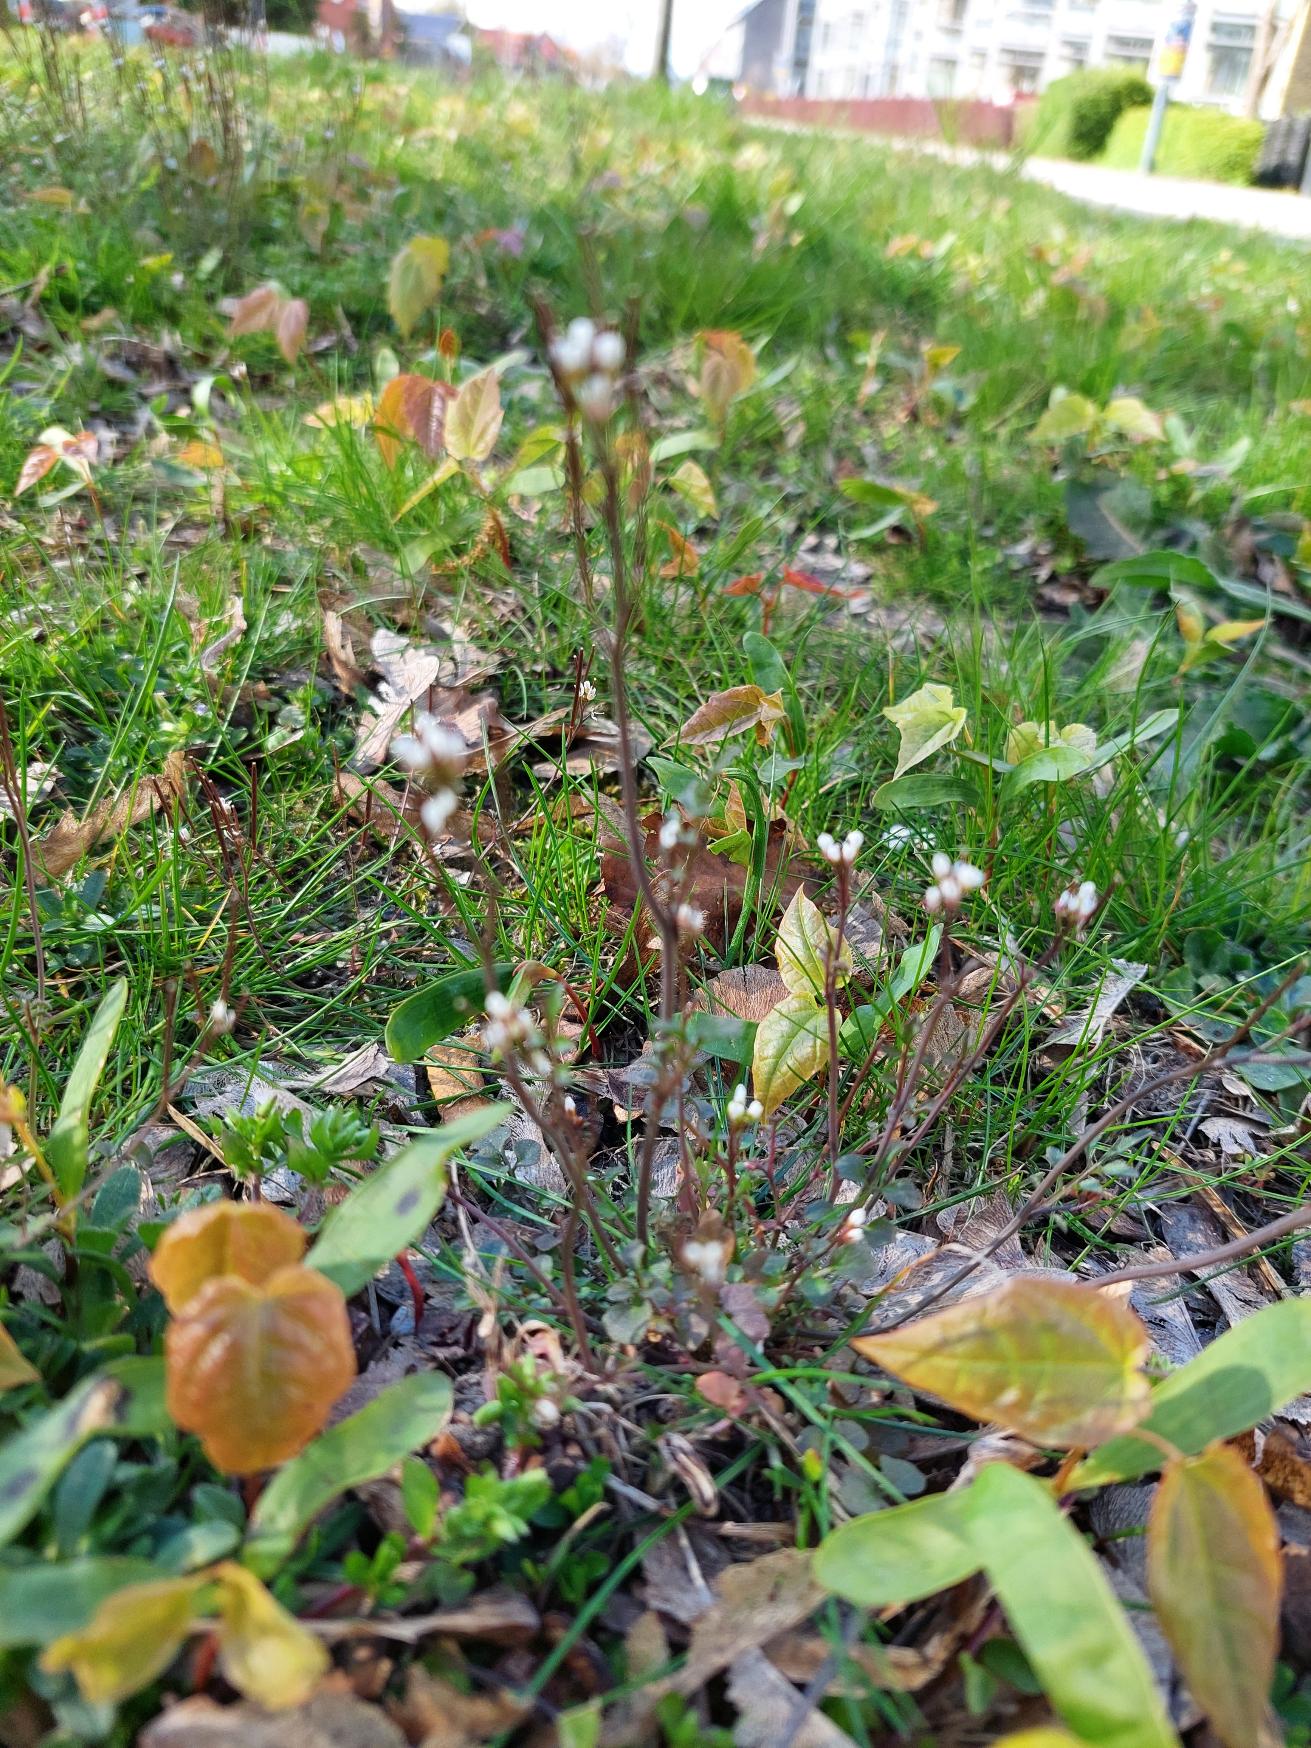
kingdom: Plantae
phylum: Tracheophyta
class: Magnoliopsida
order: Brassicales
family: Brassicaceae
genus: Cardamine
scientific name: Cardamine hirsuta
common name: Roset-springklap
